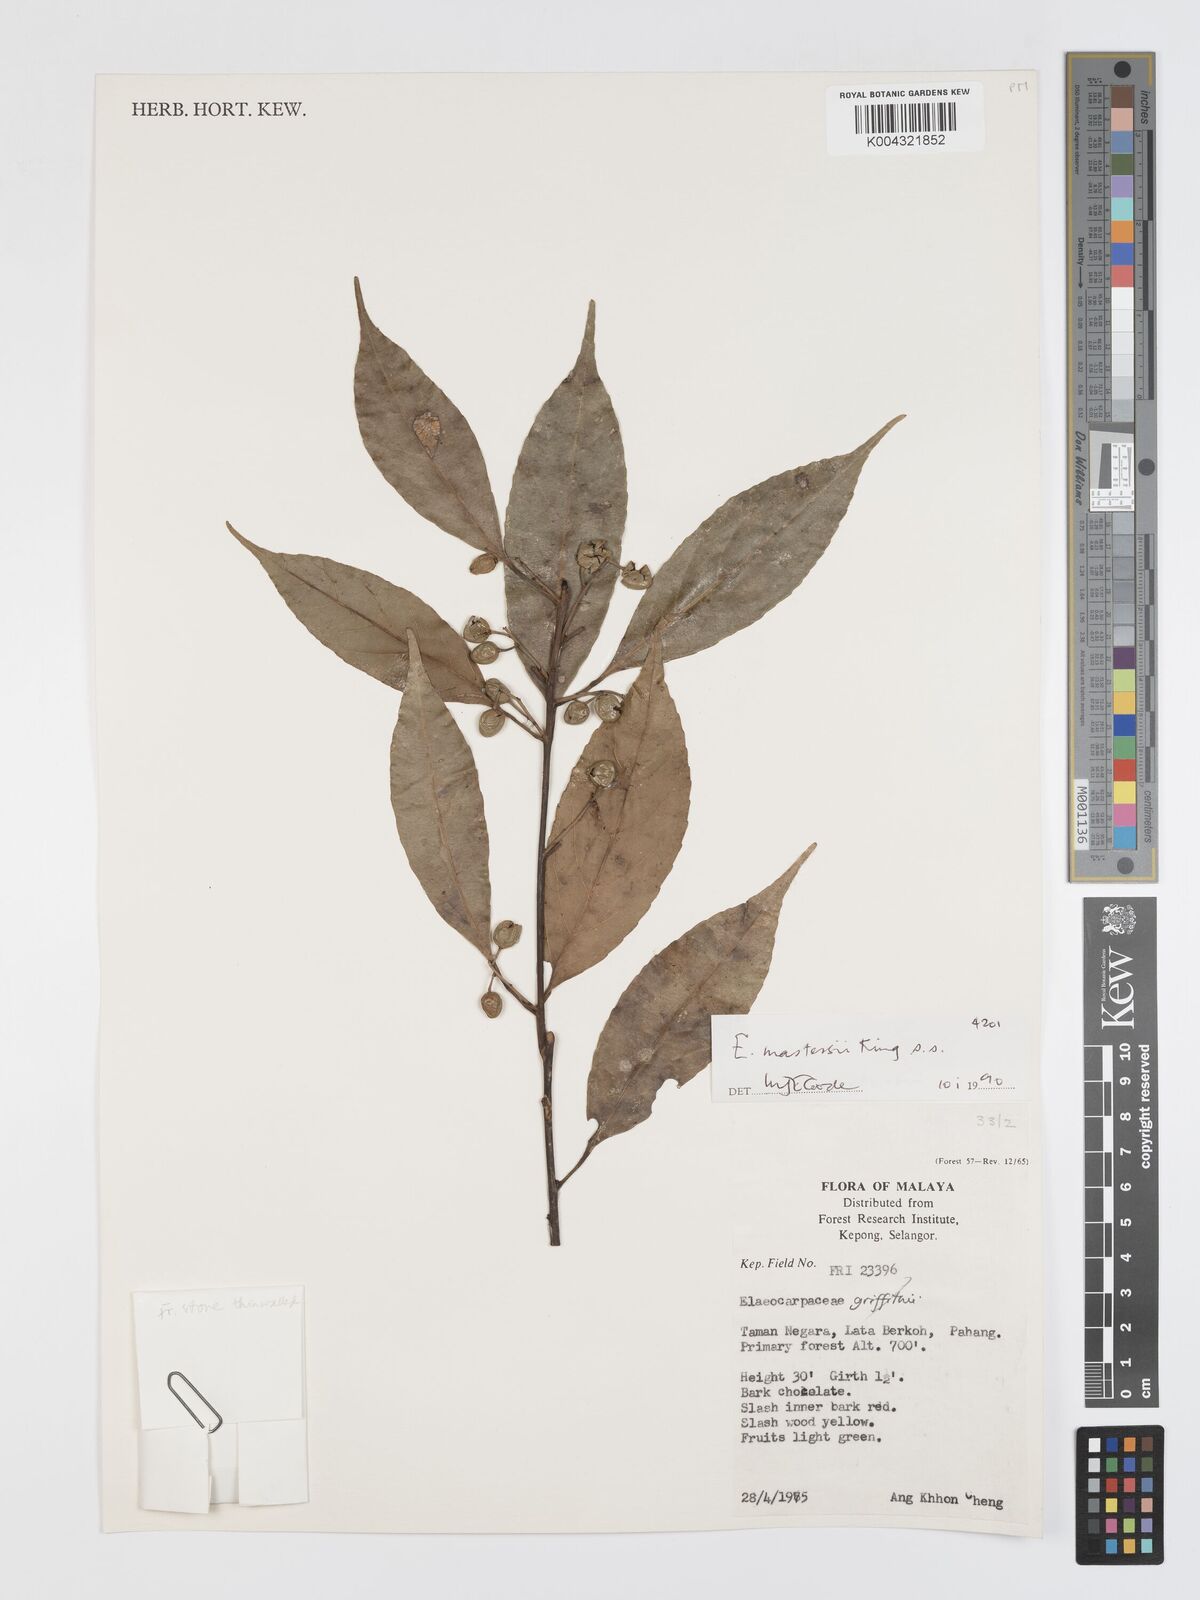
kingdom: Plantae
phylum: Tracheophyta
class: Magnoliopsida
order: Oxalidales
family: Elaeocarpaceae
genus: Elaeocarpus
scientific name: Elaeocarpus mastersii
